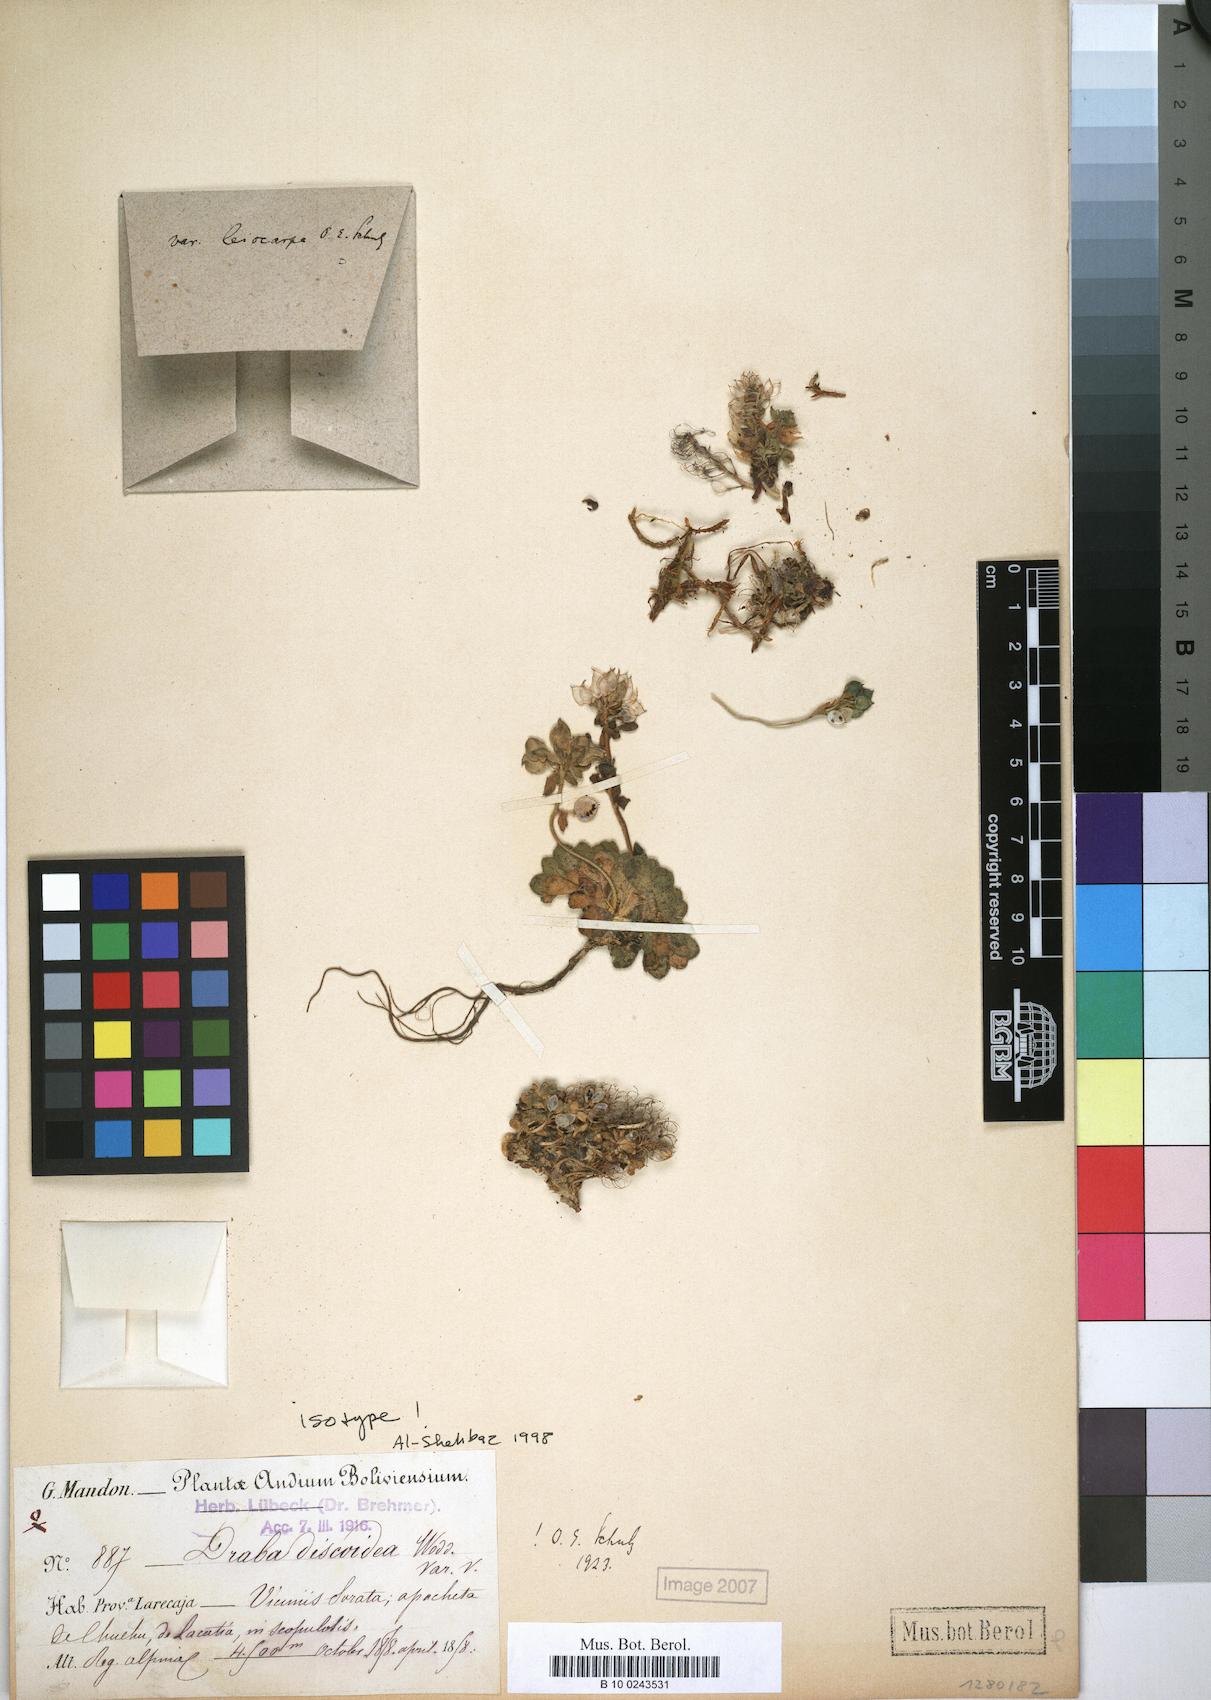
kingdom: Plantae
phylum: Tracheophyta
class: Magnoliopsida
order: Brassicales
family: Brassicaceae
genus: Draba
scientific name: Draba discoidea
